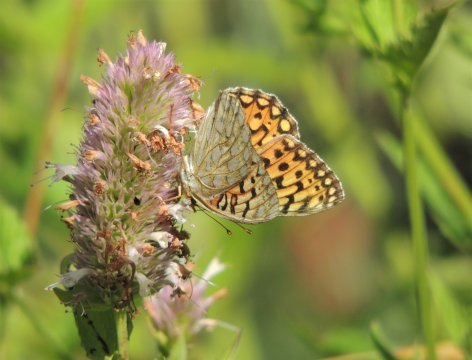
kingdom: Animalia
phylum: Arthropoda
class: Insecta
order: Lepidoptera
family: Nymphalidae
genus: Speyeria
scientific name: Speyeria callippe
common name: Callippe Fritillary
